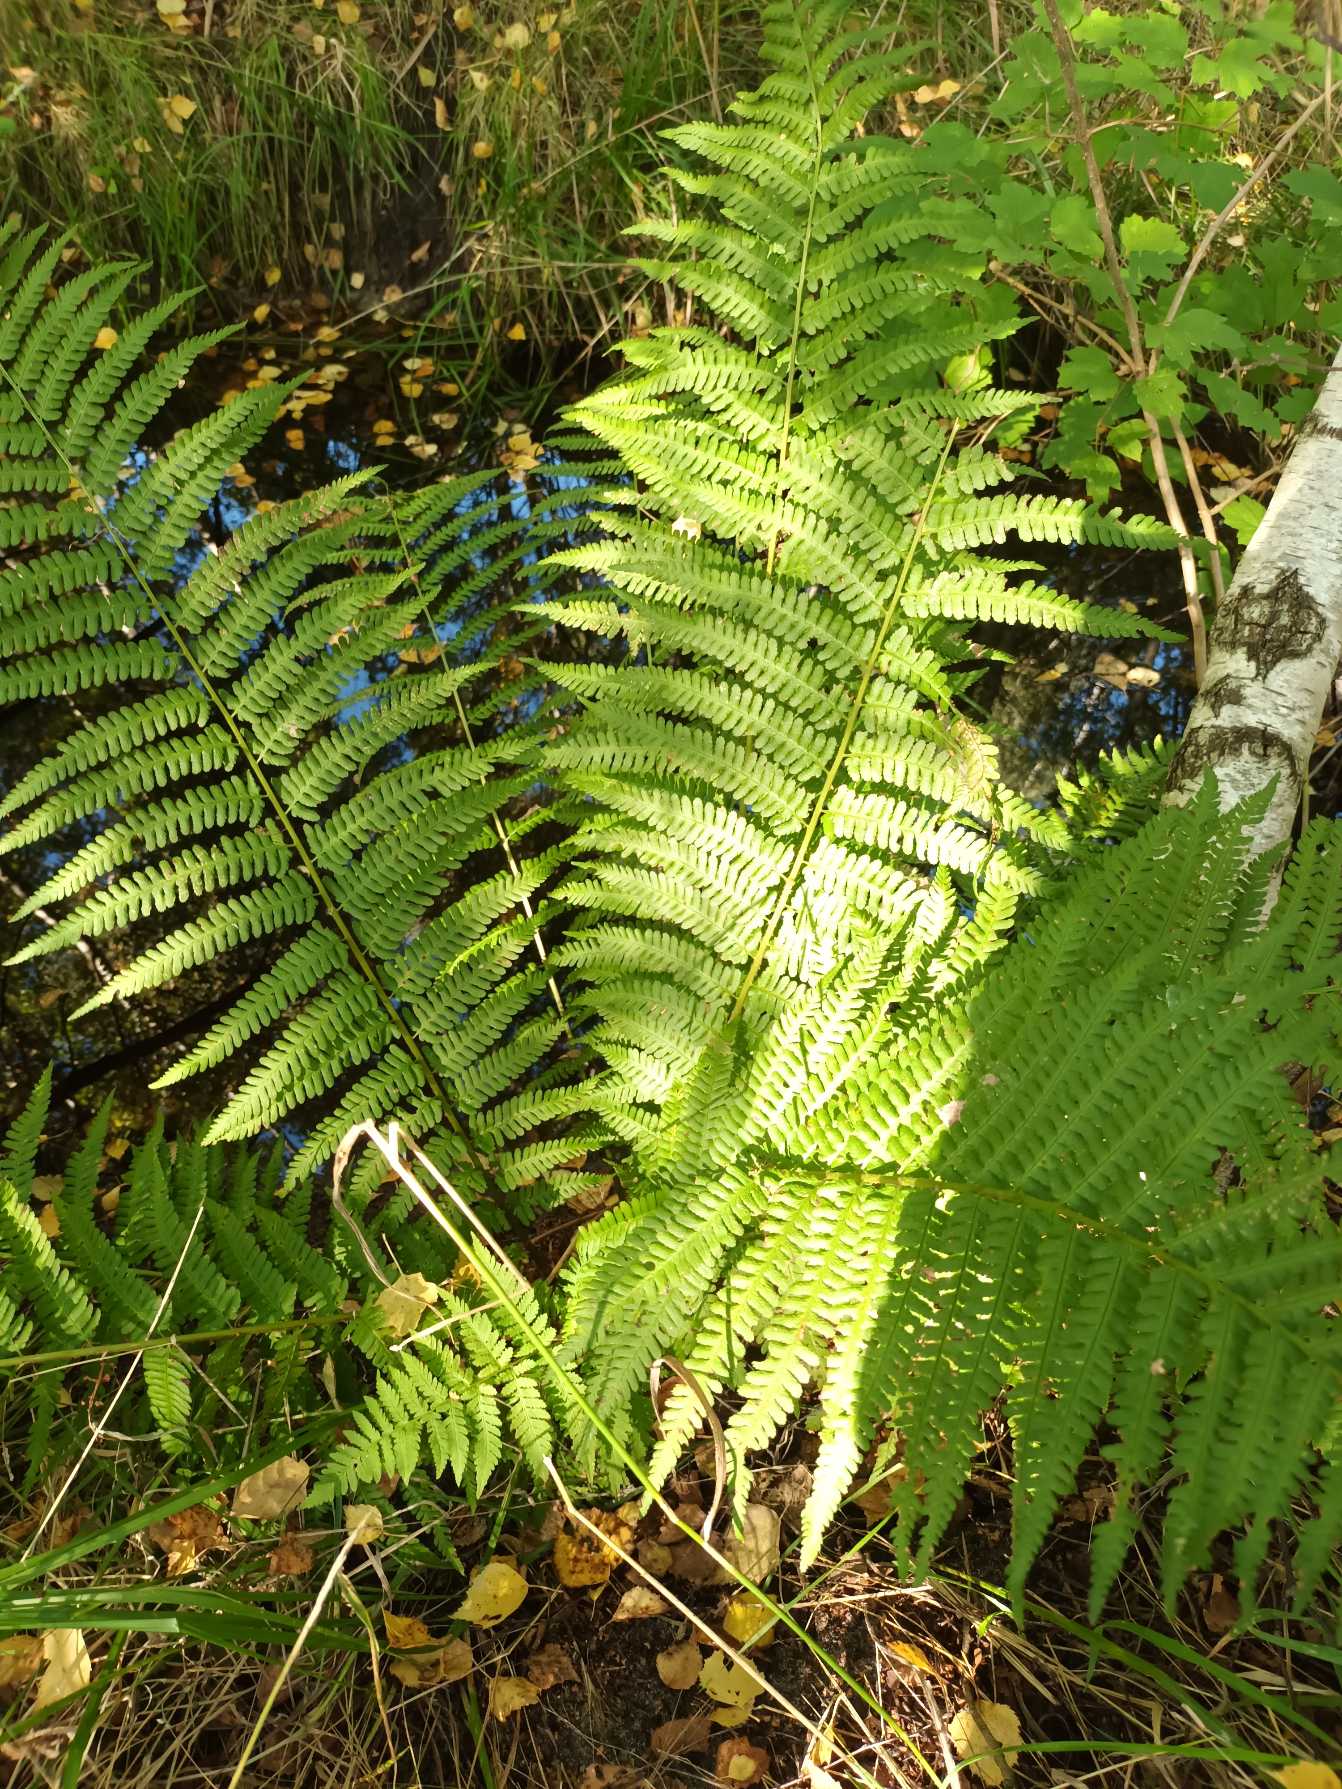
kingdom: Plantae
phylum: Tracheophyta
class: Polypodiopsida
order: Polypodiales
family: Dryopteridaceae
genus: Dryopteris
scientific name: Dryopteris filix-mas
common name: Almindelig mangeløv
